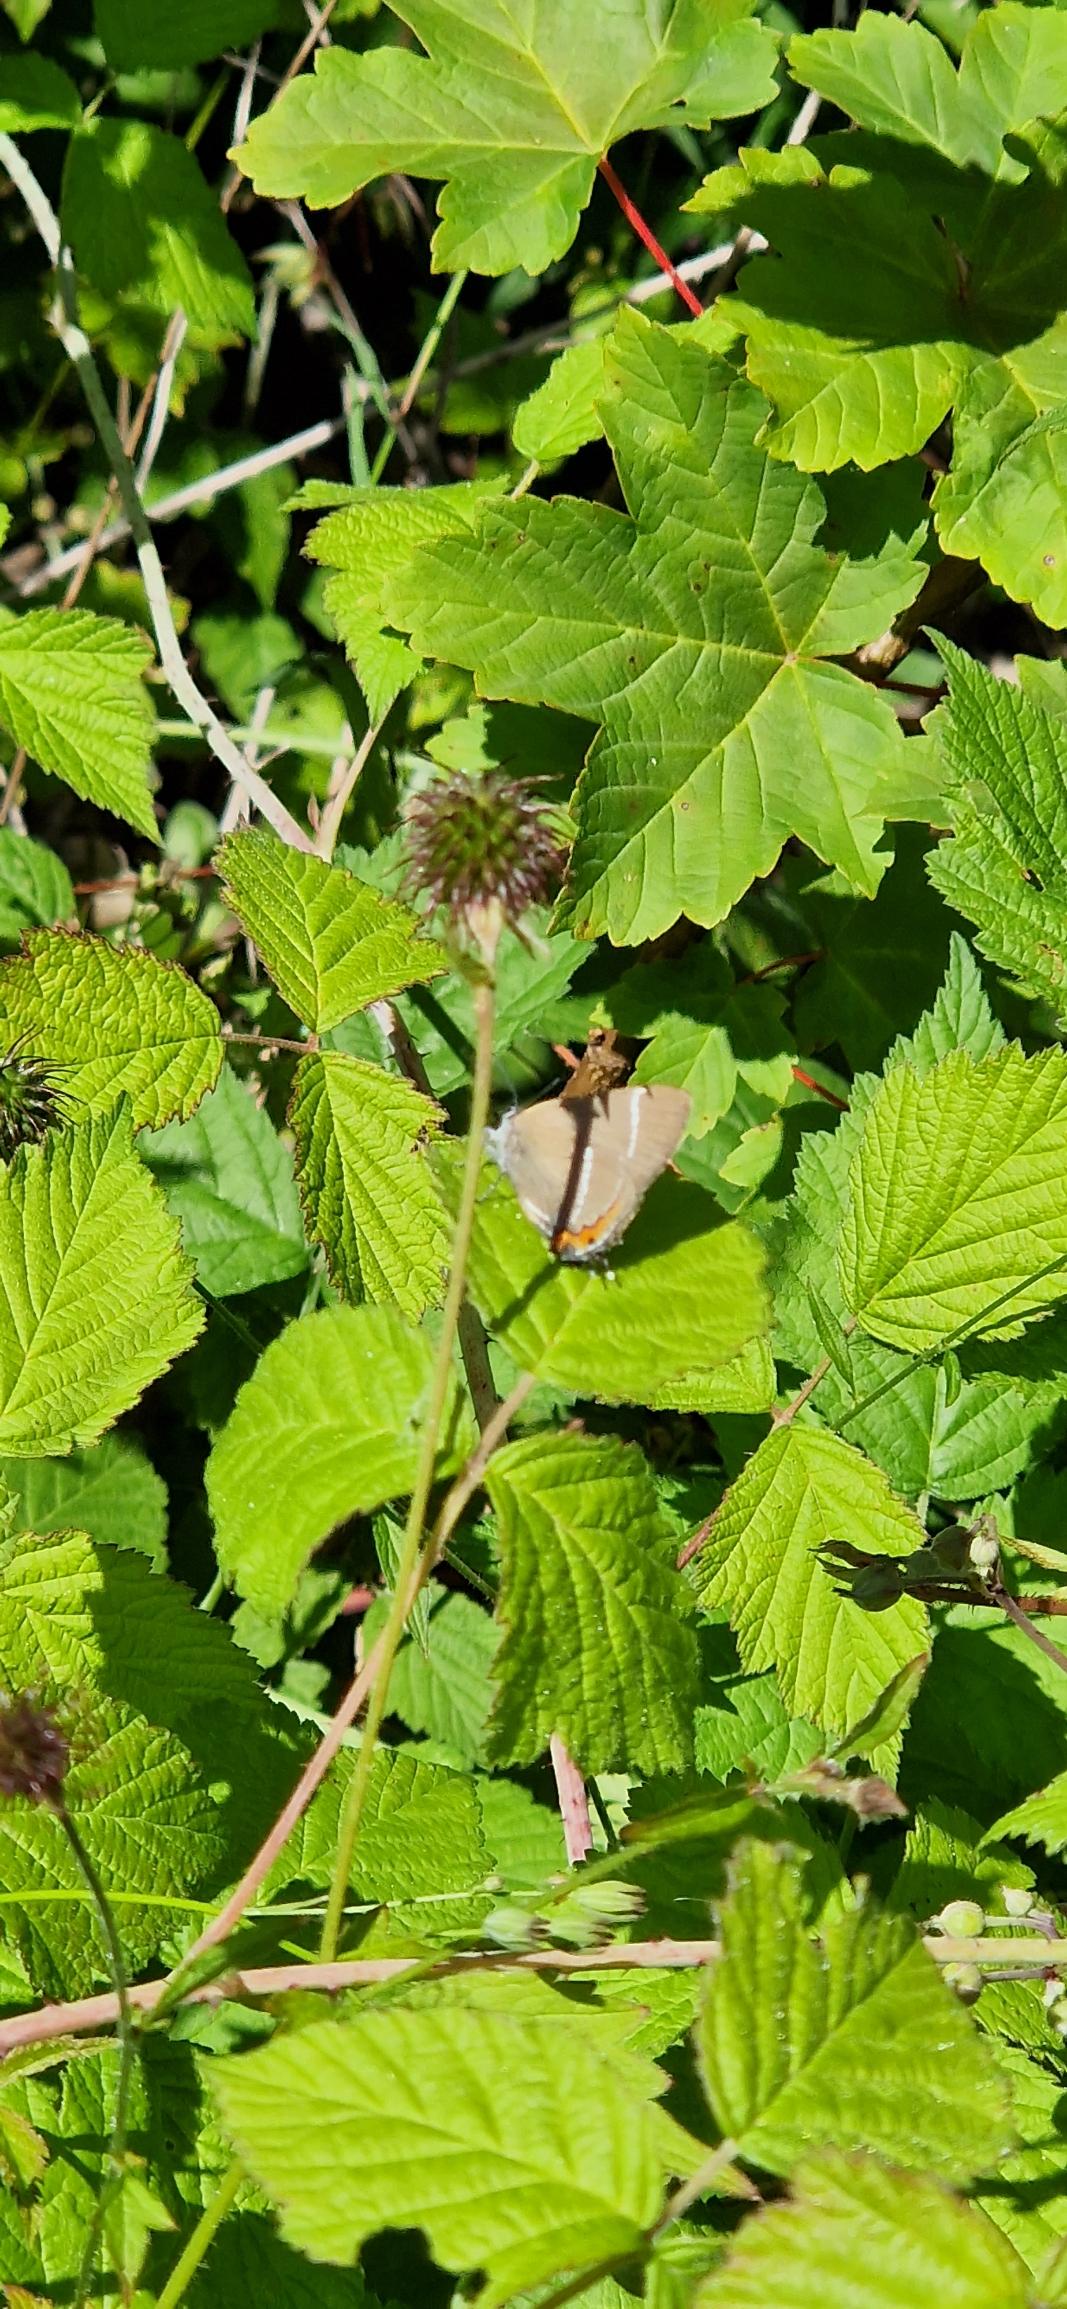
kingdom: Animalia
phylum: Arthropoda
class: Insecta
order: Lepidoptera
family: Lycaenidae
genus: Satyrium
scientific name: Satyrium w-album
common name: Det hvide W
